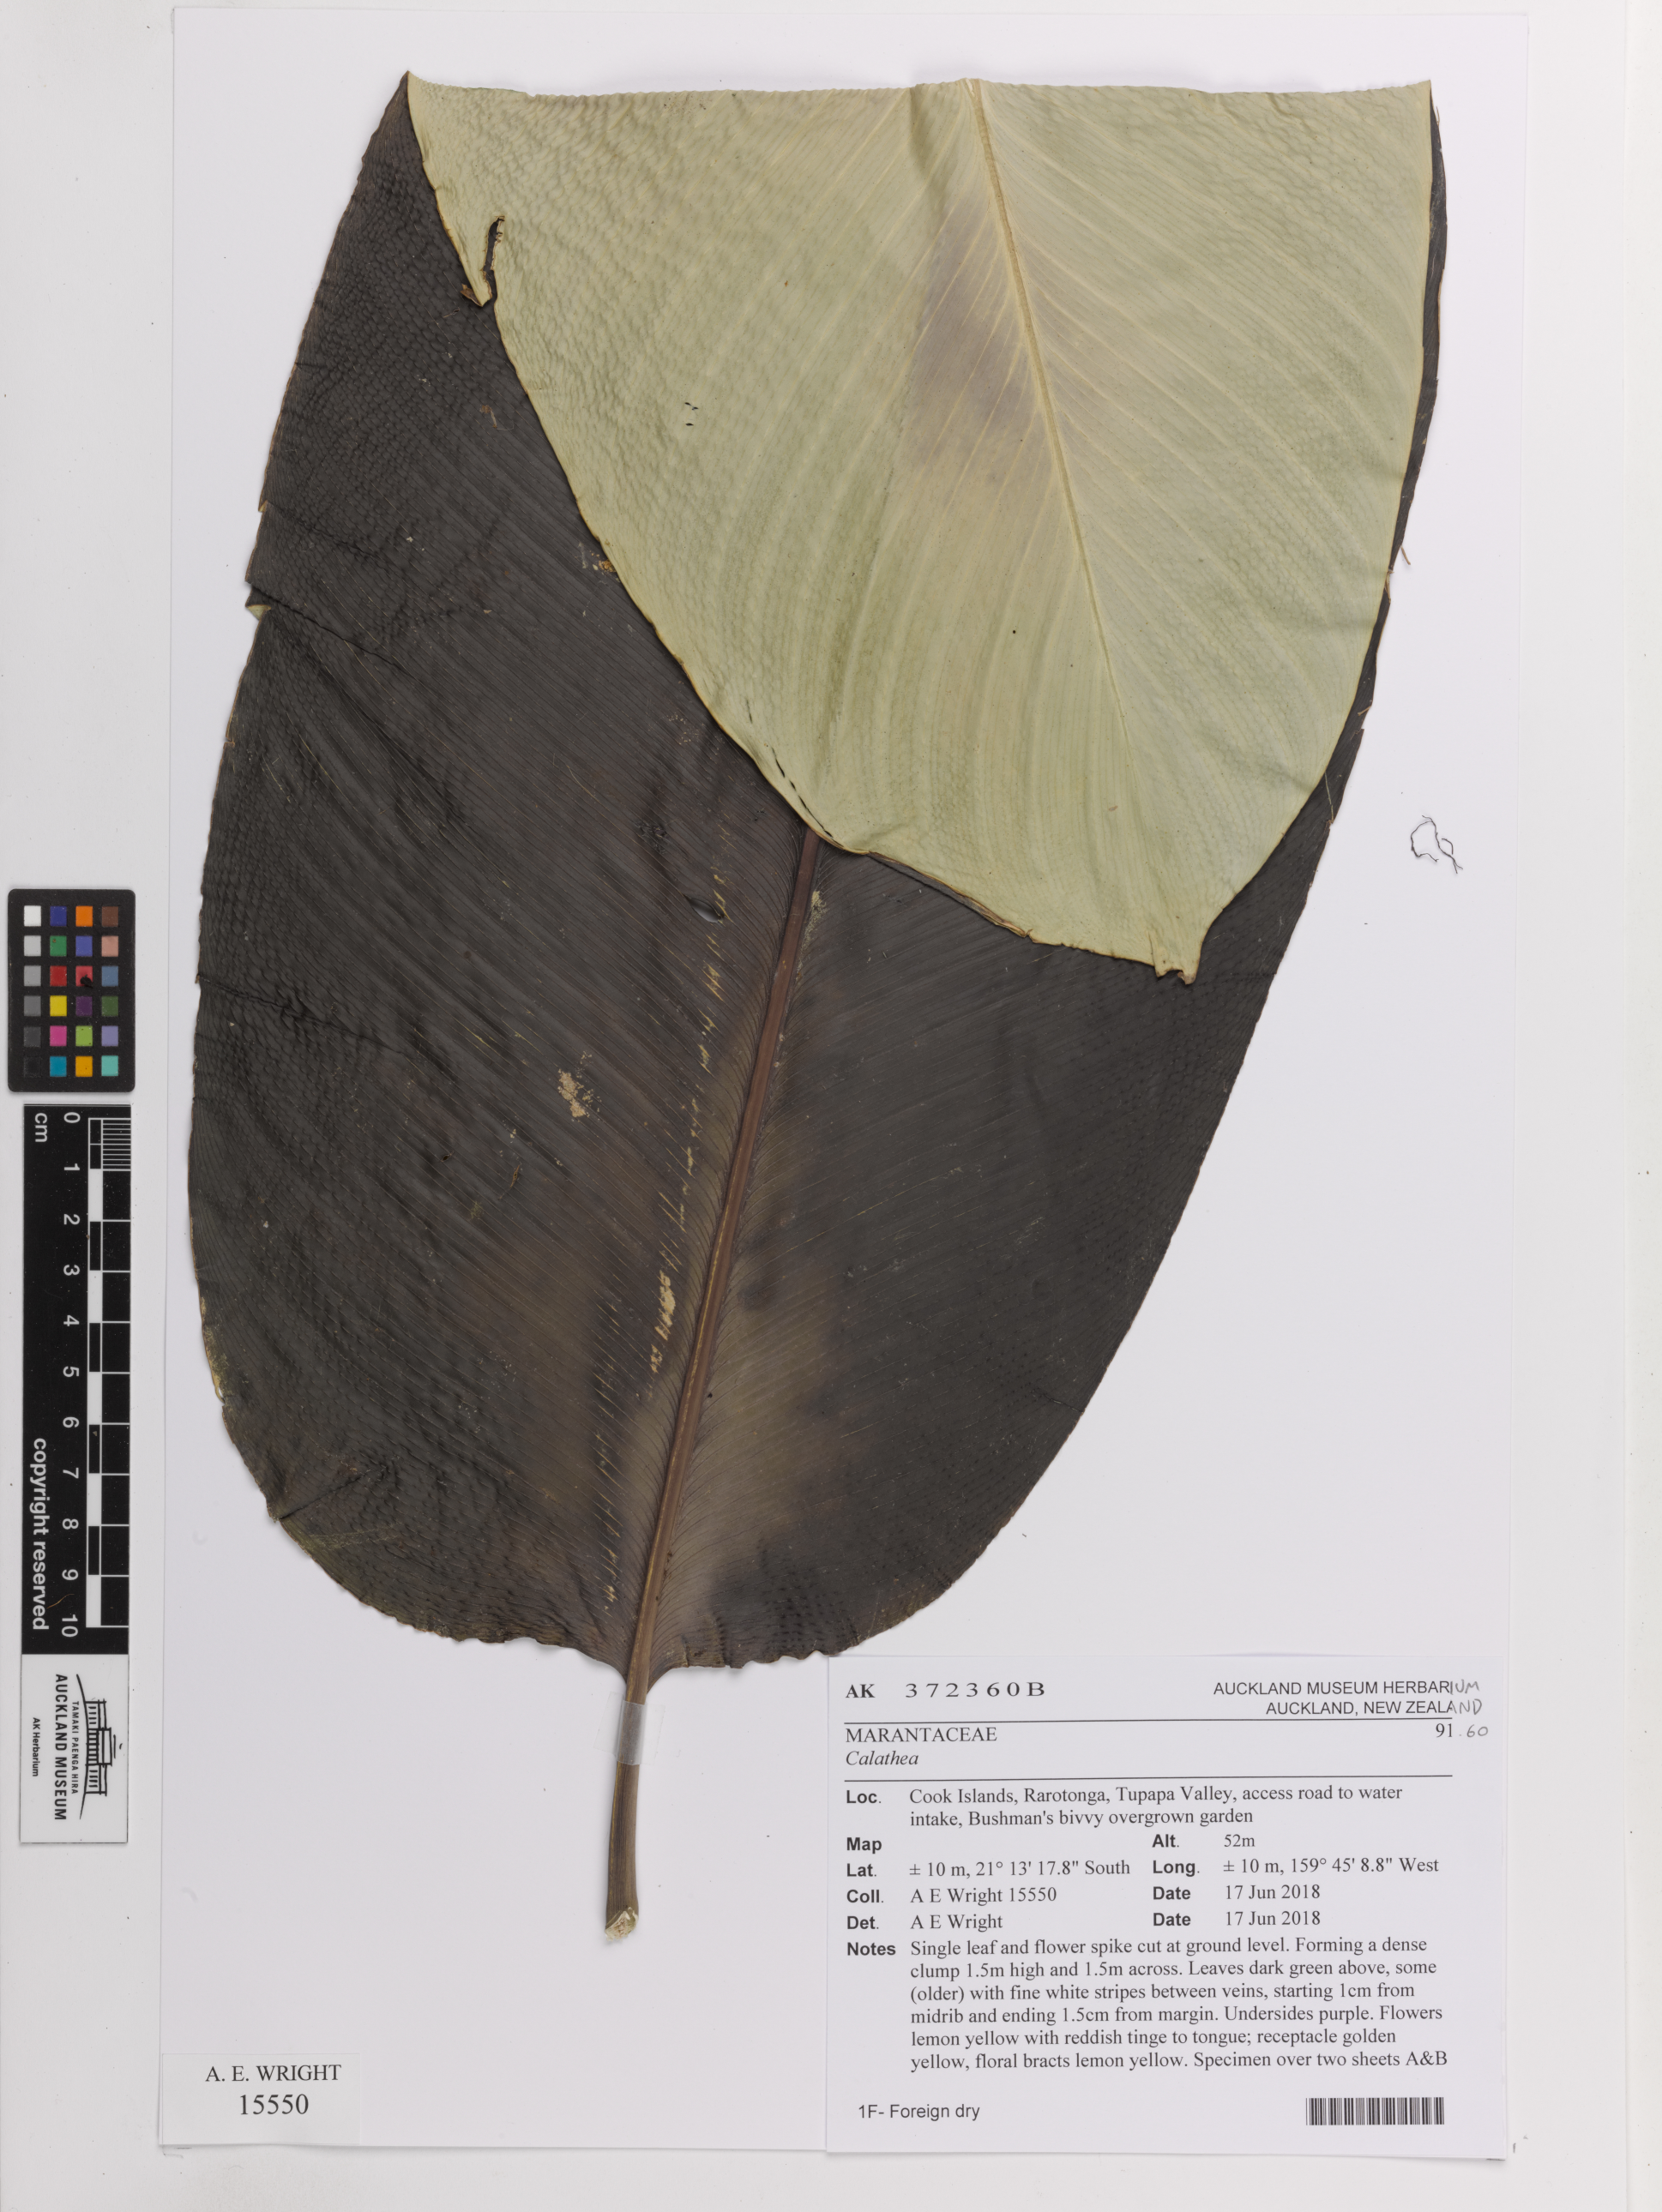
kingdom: Plantae
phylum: Tracheophyta
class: Liliopsida
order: Zingiberales
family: Marantaceae
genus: Calathea
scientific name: Calathea
